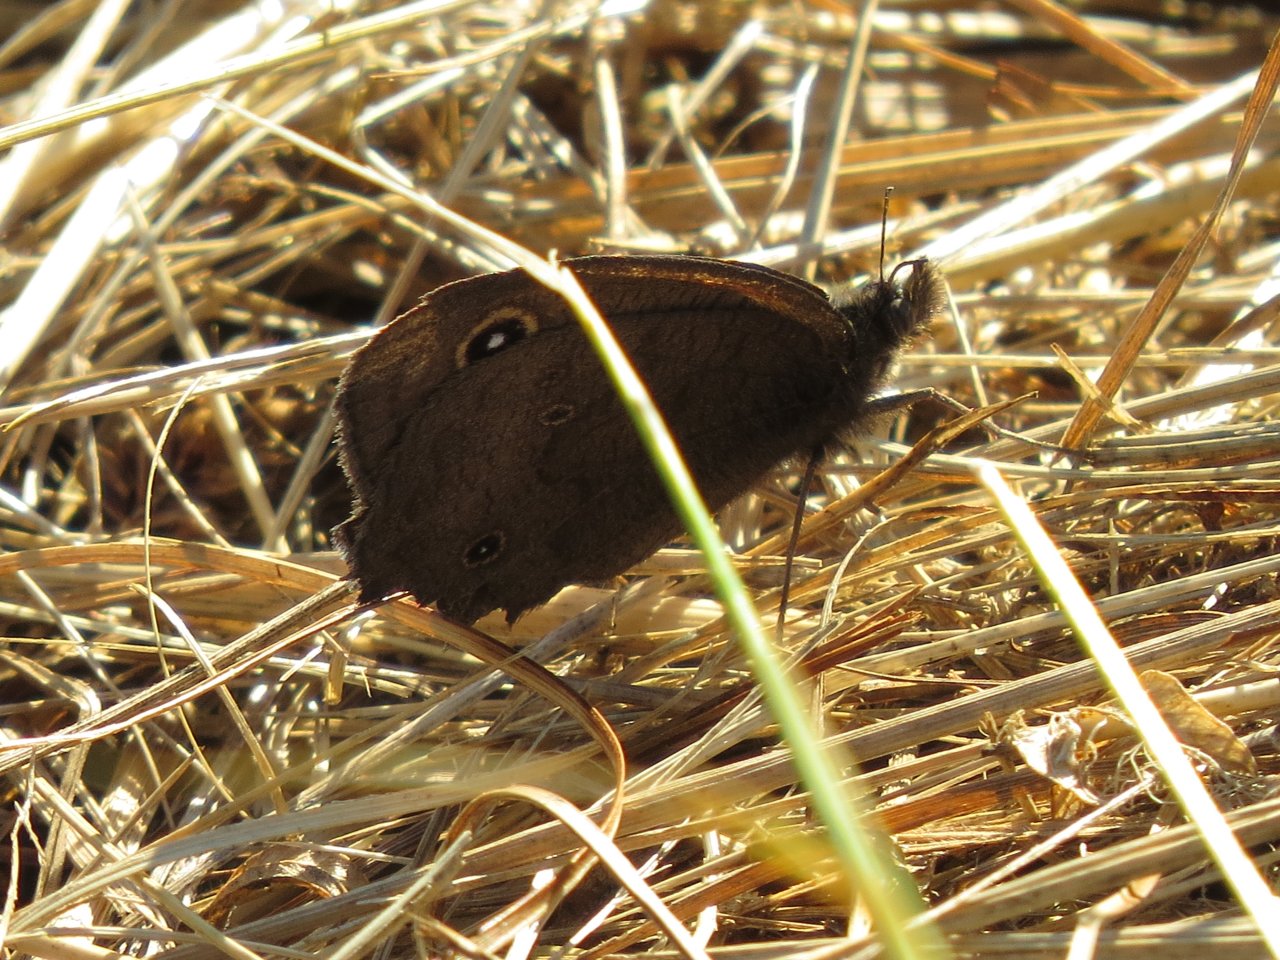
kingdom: Animalia
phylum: Arthropoda
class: Insecta
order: Lepidoptera
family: Nymphalidae
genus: Cercyonis
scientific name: Cercyonis pegala
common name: Common Wood-Nymph
